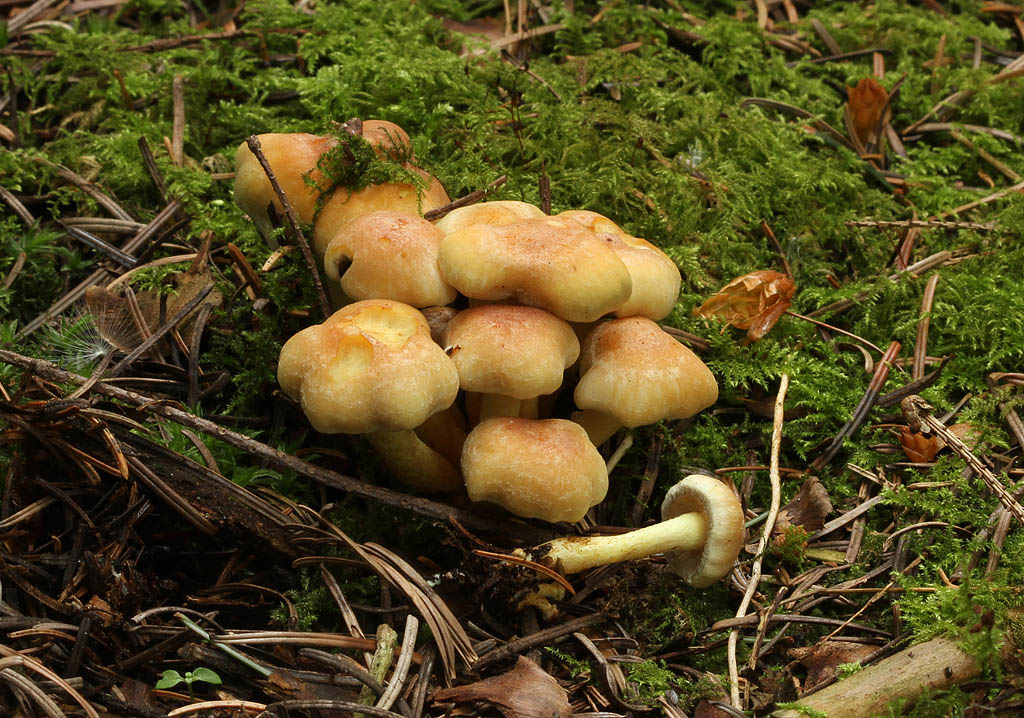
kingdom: Fungi
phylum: Basidiomycota
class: Agaricomycetes
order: Agaricales
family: Strophariaceae
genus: Hypholoma
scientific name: Hypholoma fasciculare
